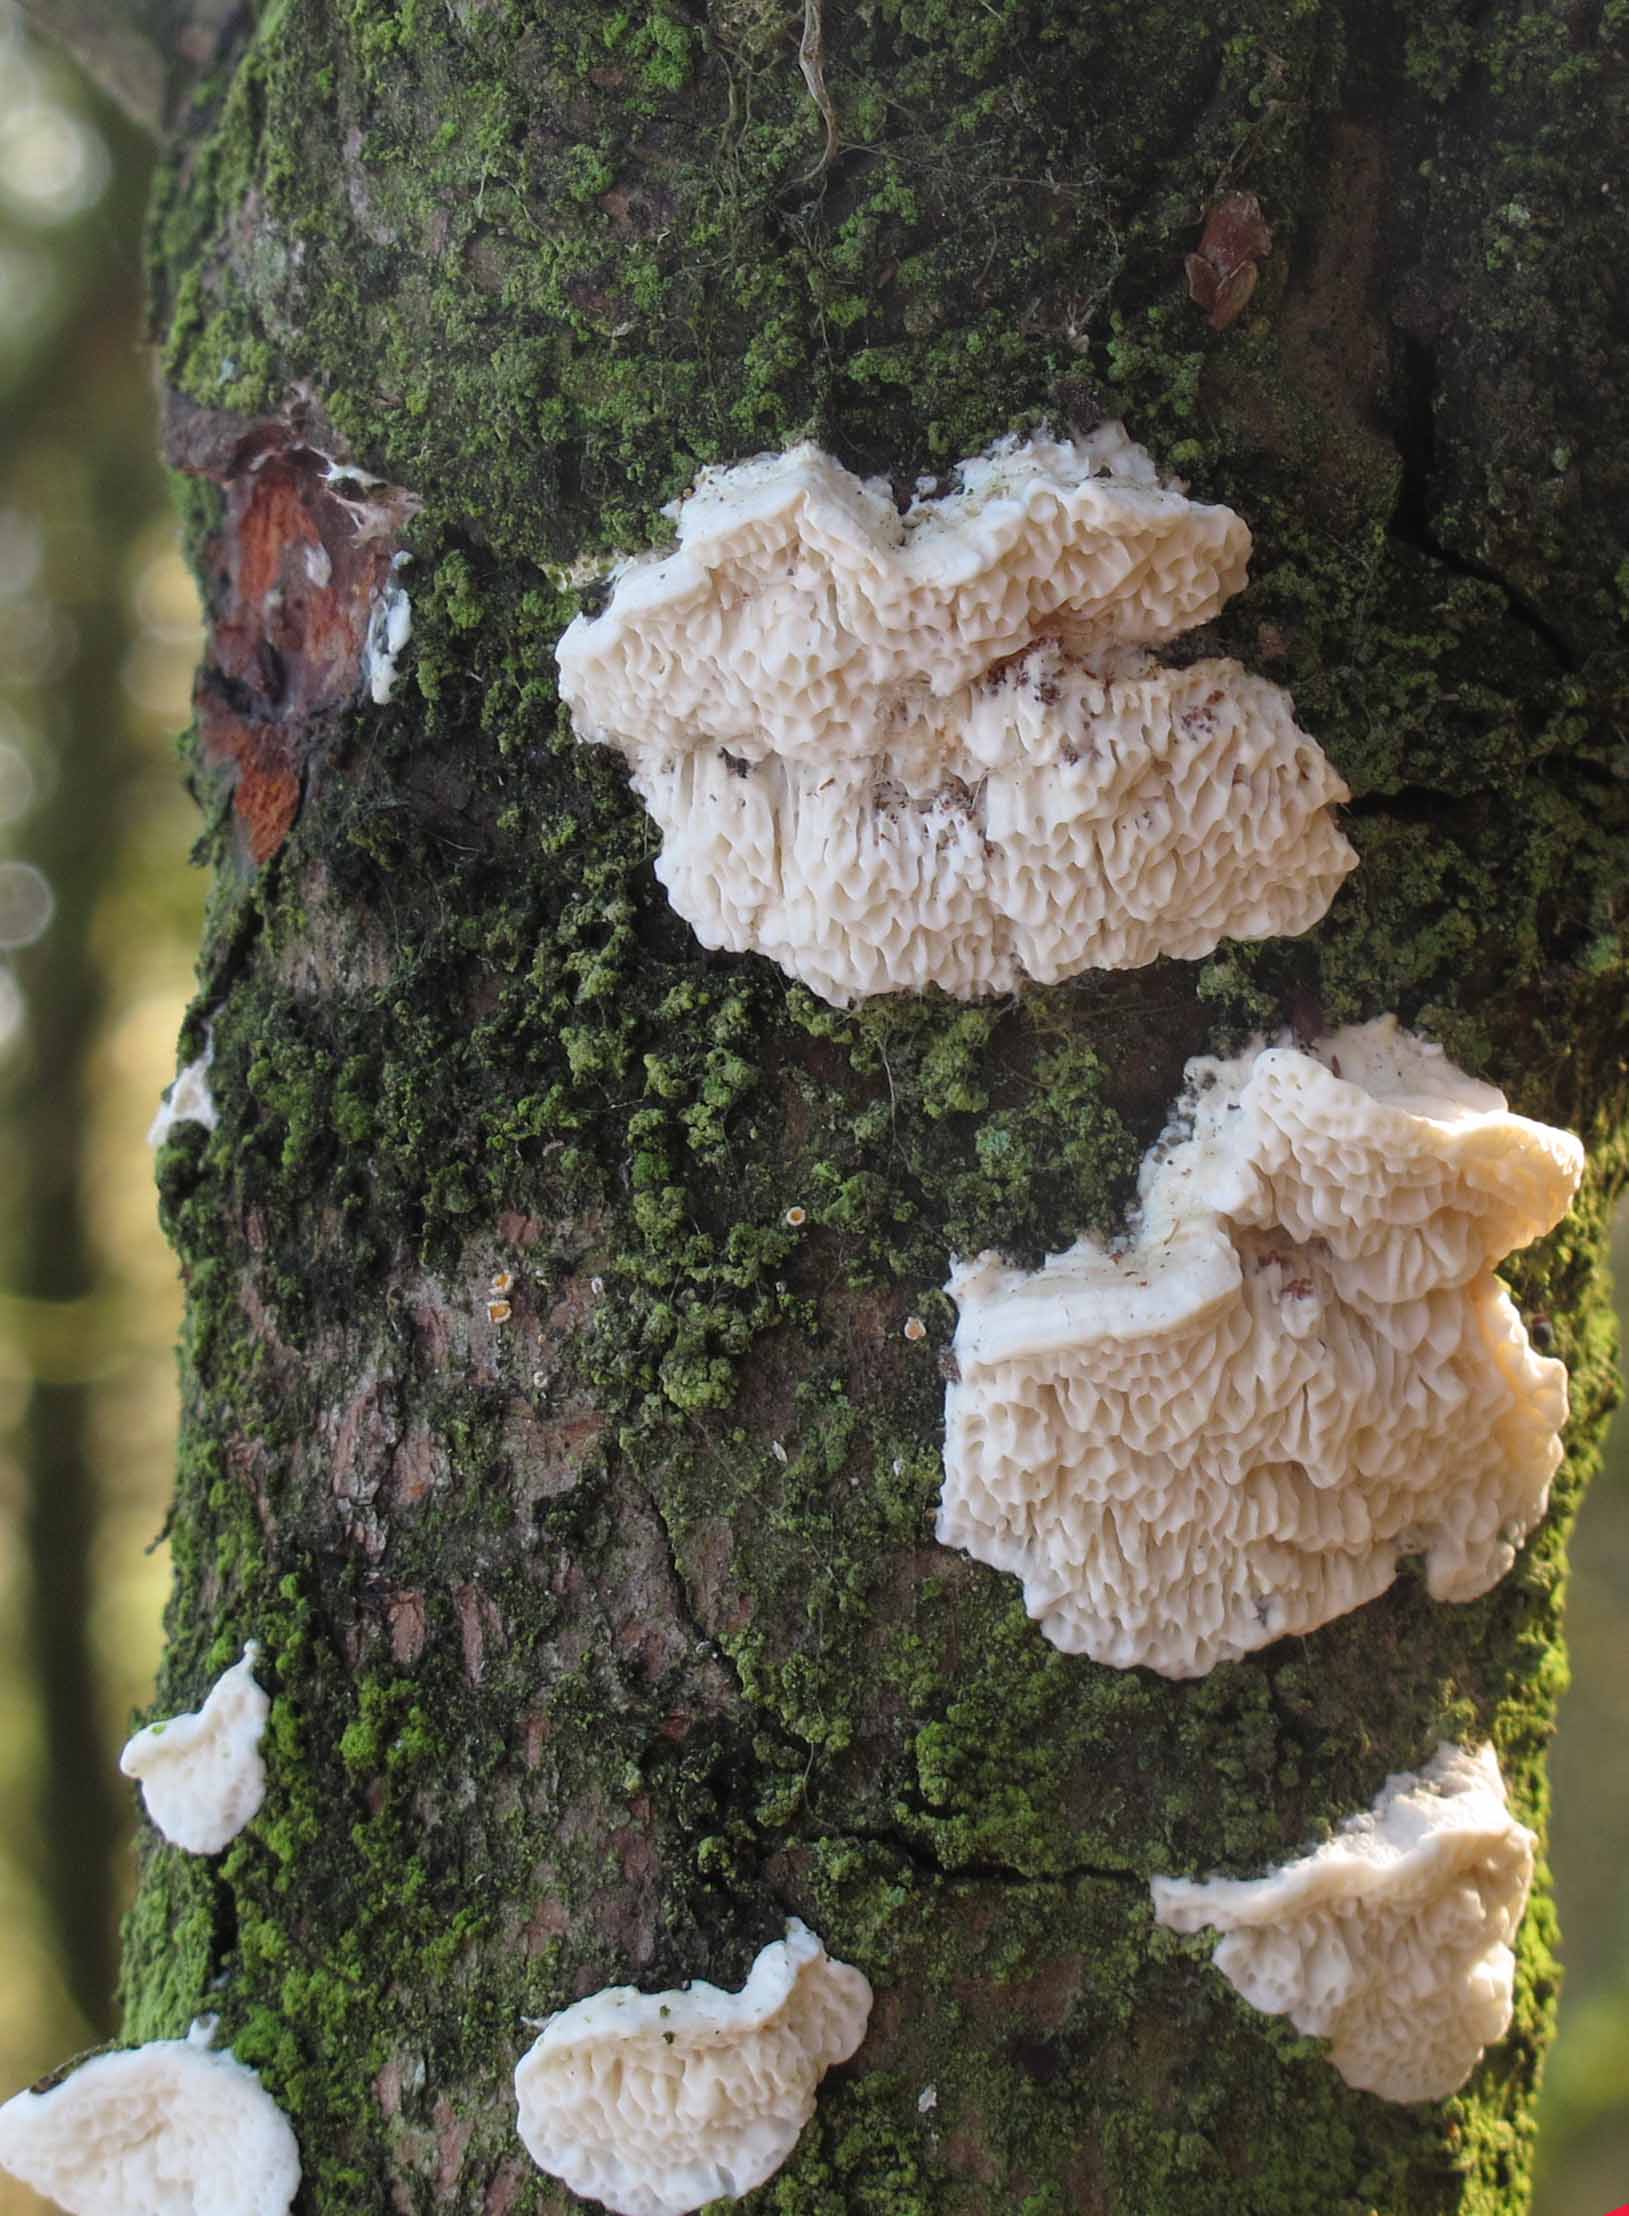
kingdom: Fungi
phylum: Basidiomycota
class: Agaricomycetes
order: Polyporales
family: Fomitopsidaceae
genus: Fomitopsis
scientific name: Fomitopsis
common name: fyrre-skiveporesvamp
